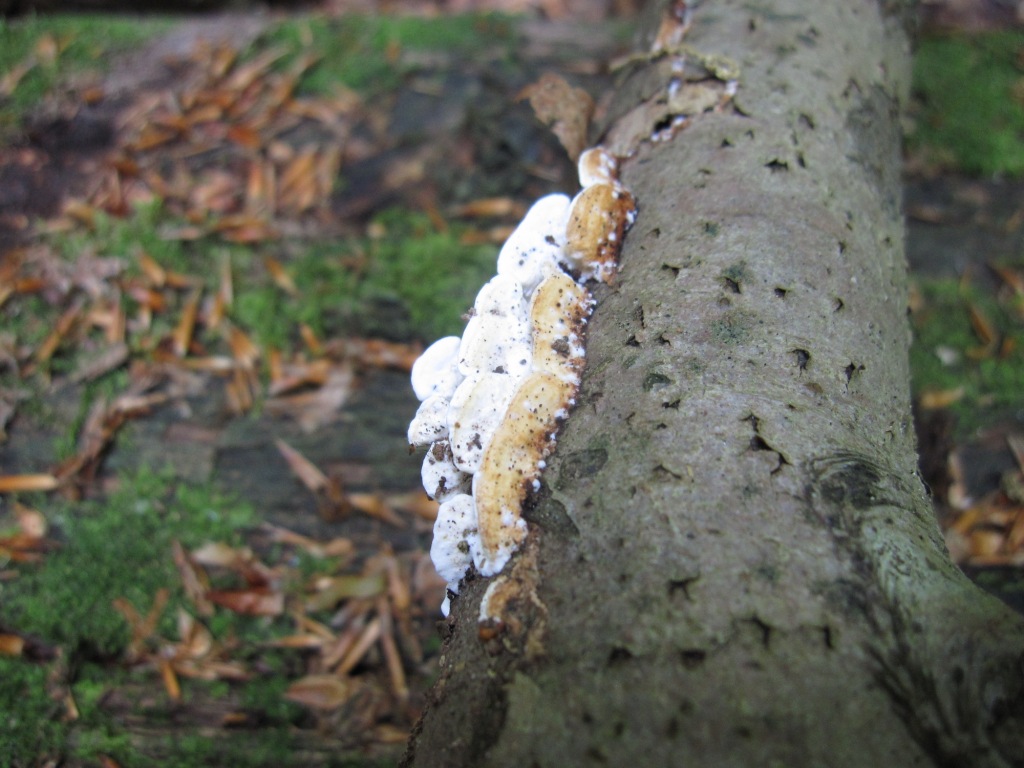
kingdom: Fungi
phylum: Basidiomycota
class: Agaricomycetes
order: Polyporales
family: Incrustoporiaceae
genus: Skeletocutis
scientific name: Skeletocutis nemoralis
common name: stor krystalporesvamp
